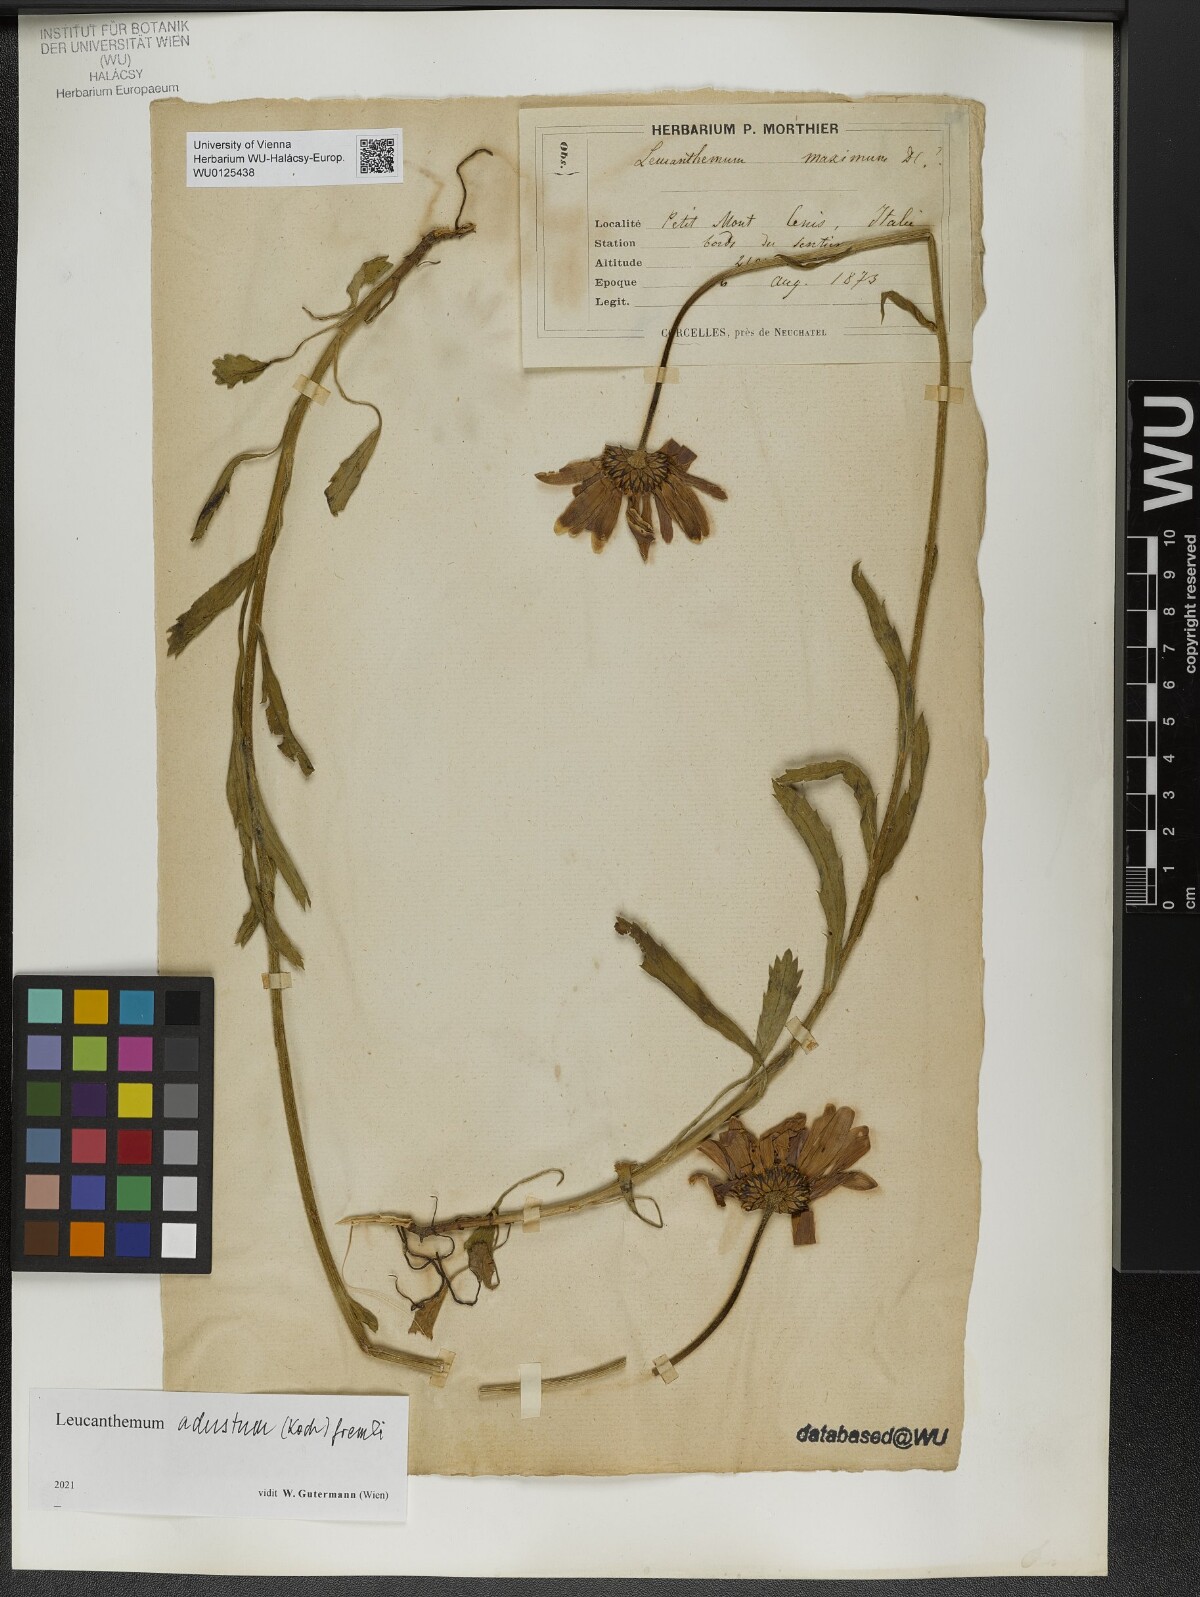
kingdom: Plantae
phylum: Tracheophyta
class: Magnoliopsida
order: Asterales
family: Asteraceae
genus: Leucanthemum
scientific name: Leucanthemum adustum
